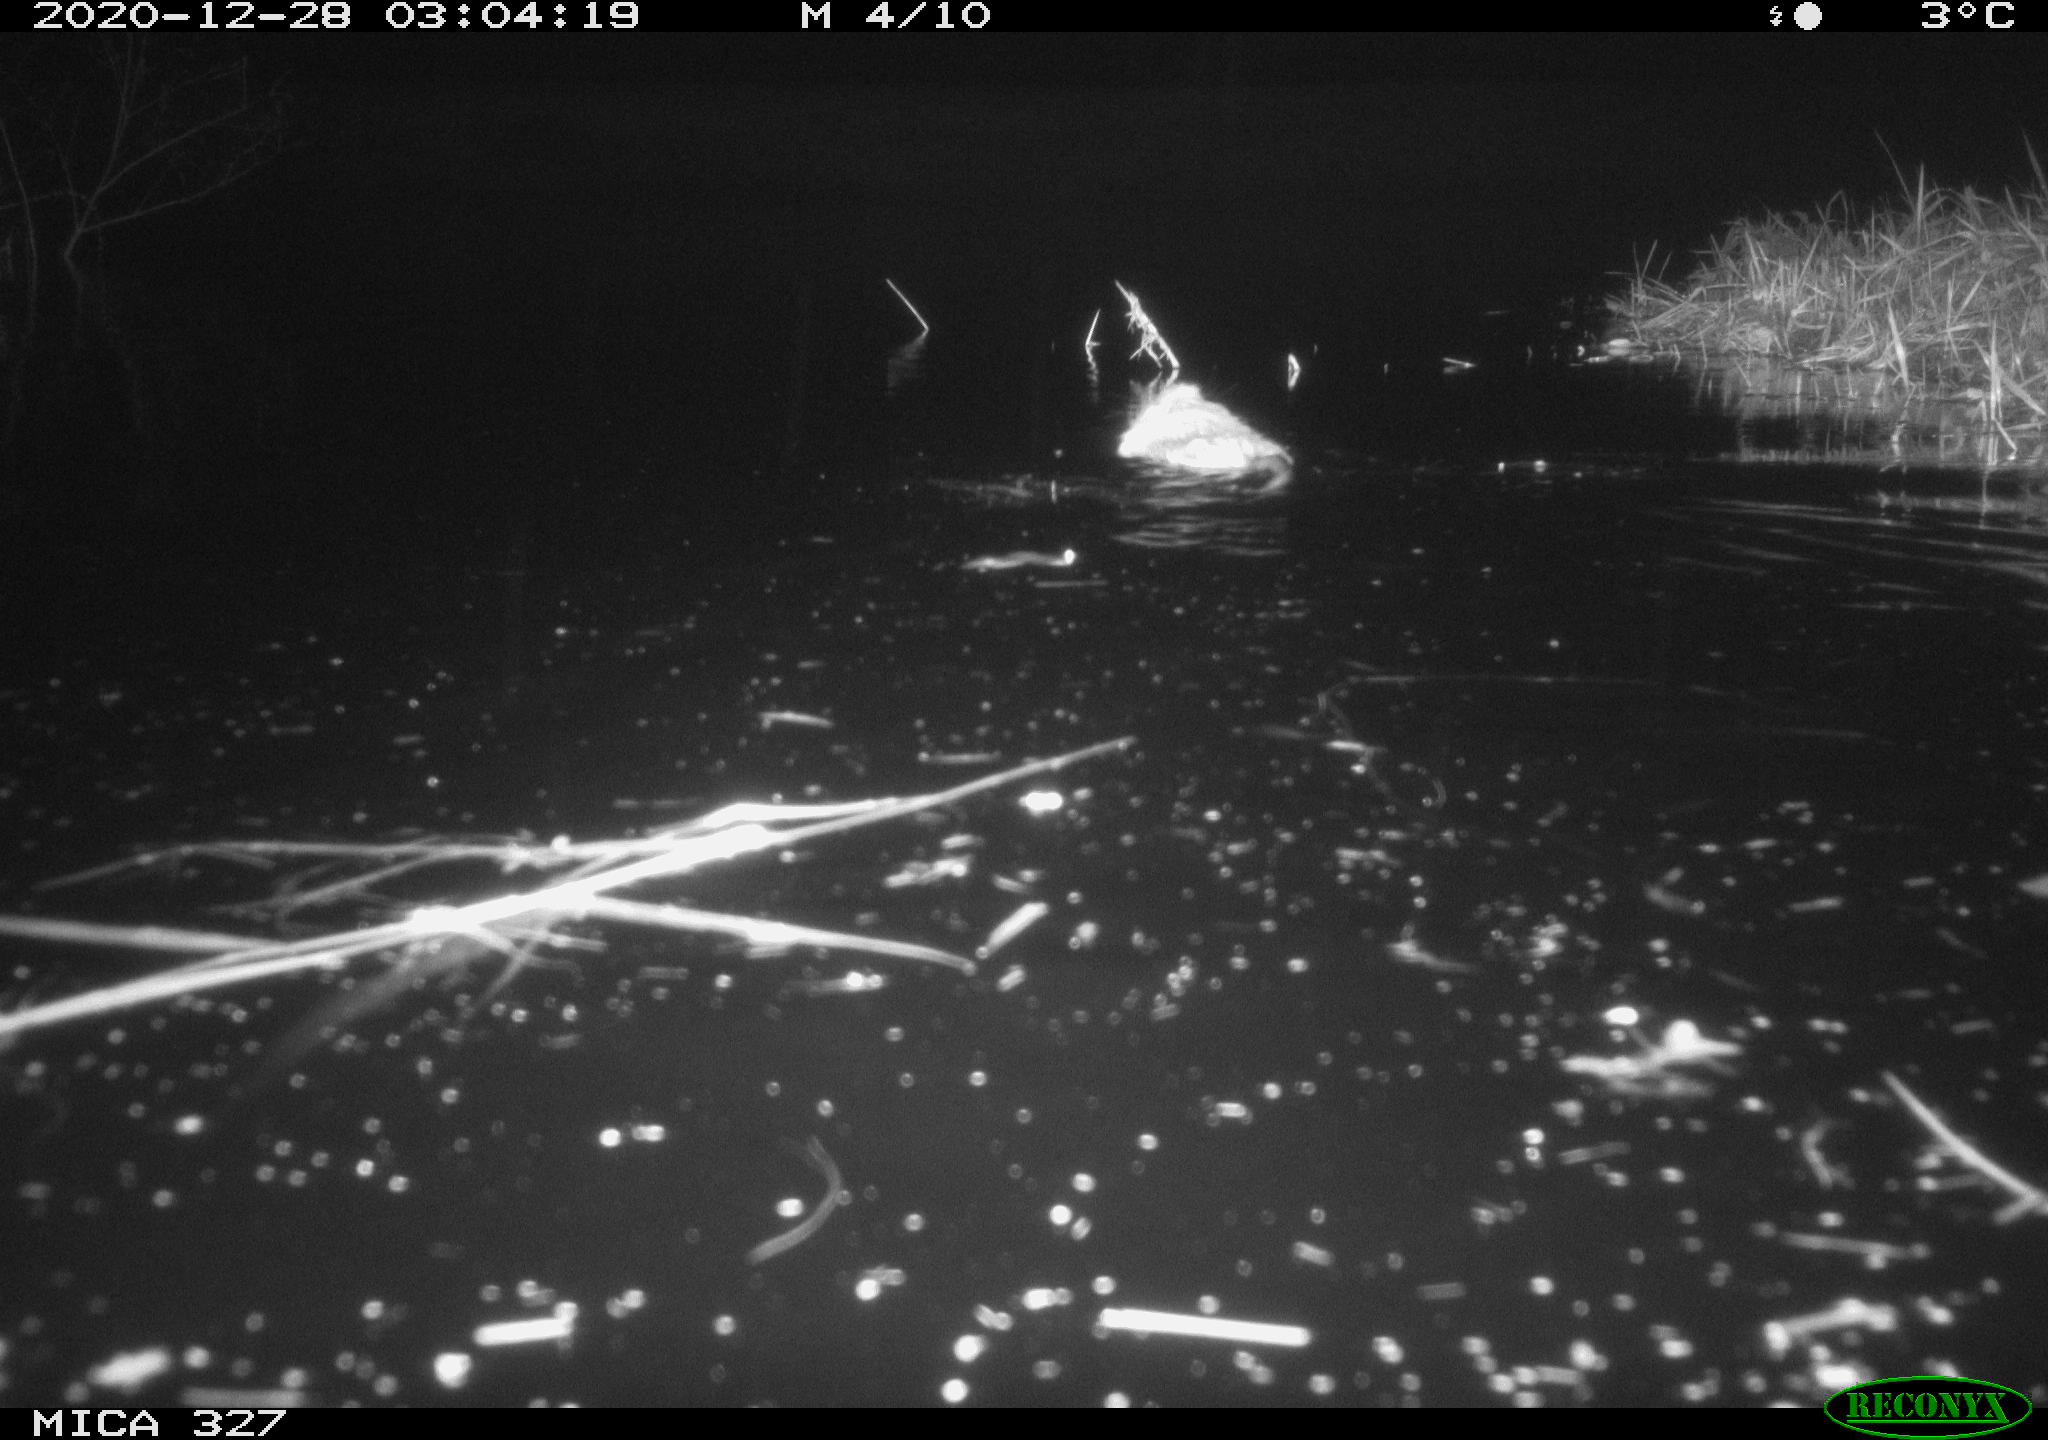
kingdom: Animalia
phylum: Chordata
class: Mammalia
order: Rodentia
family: Cricetidae
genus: Ondatra
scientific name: Ondatra zibethicus
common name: Muskrat
